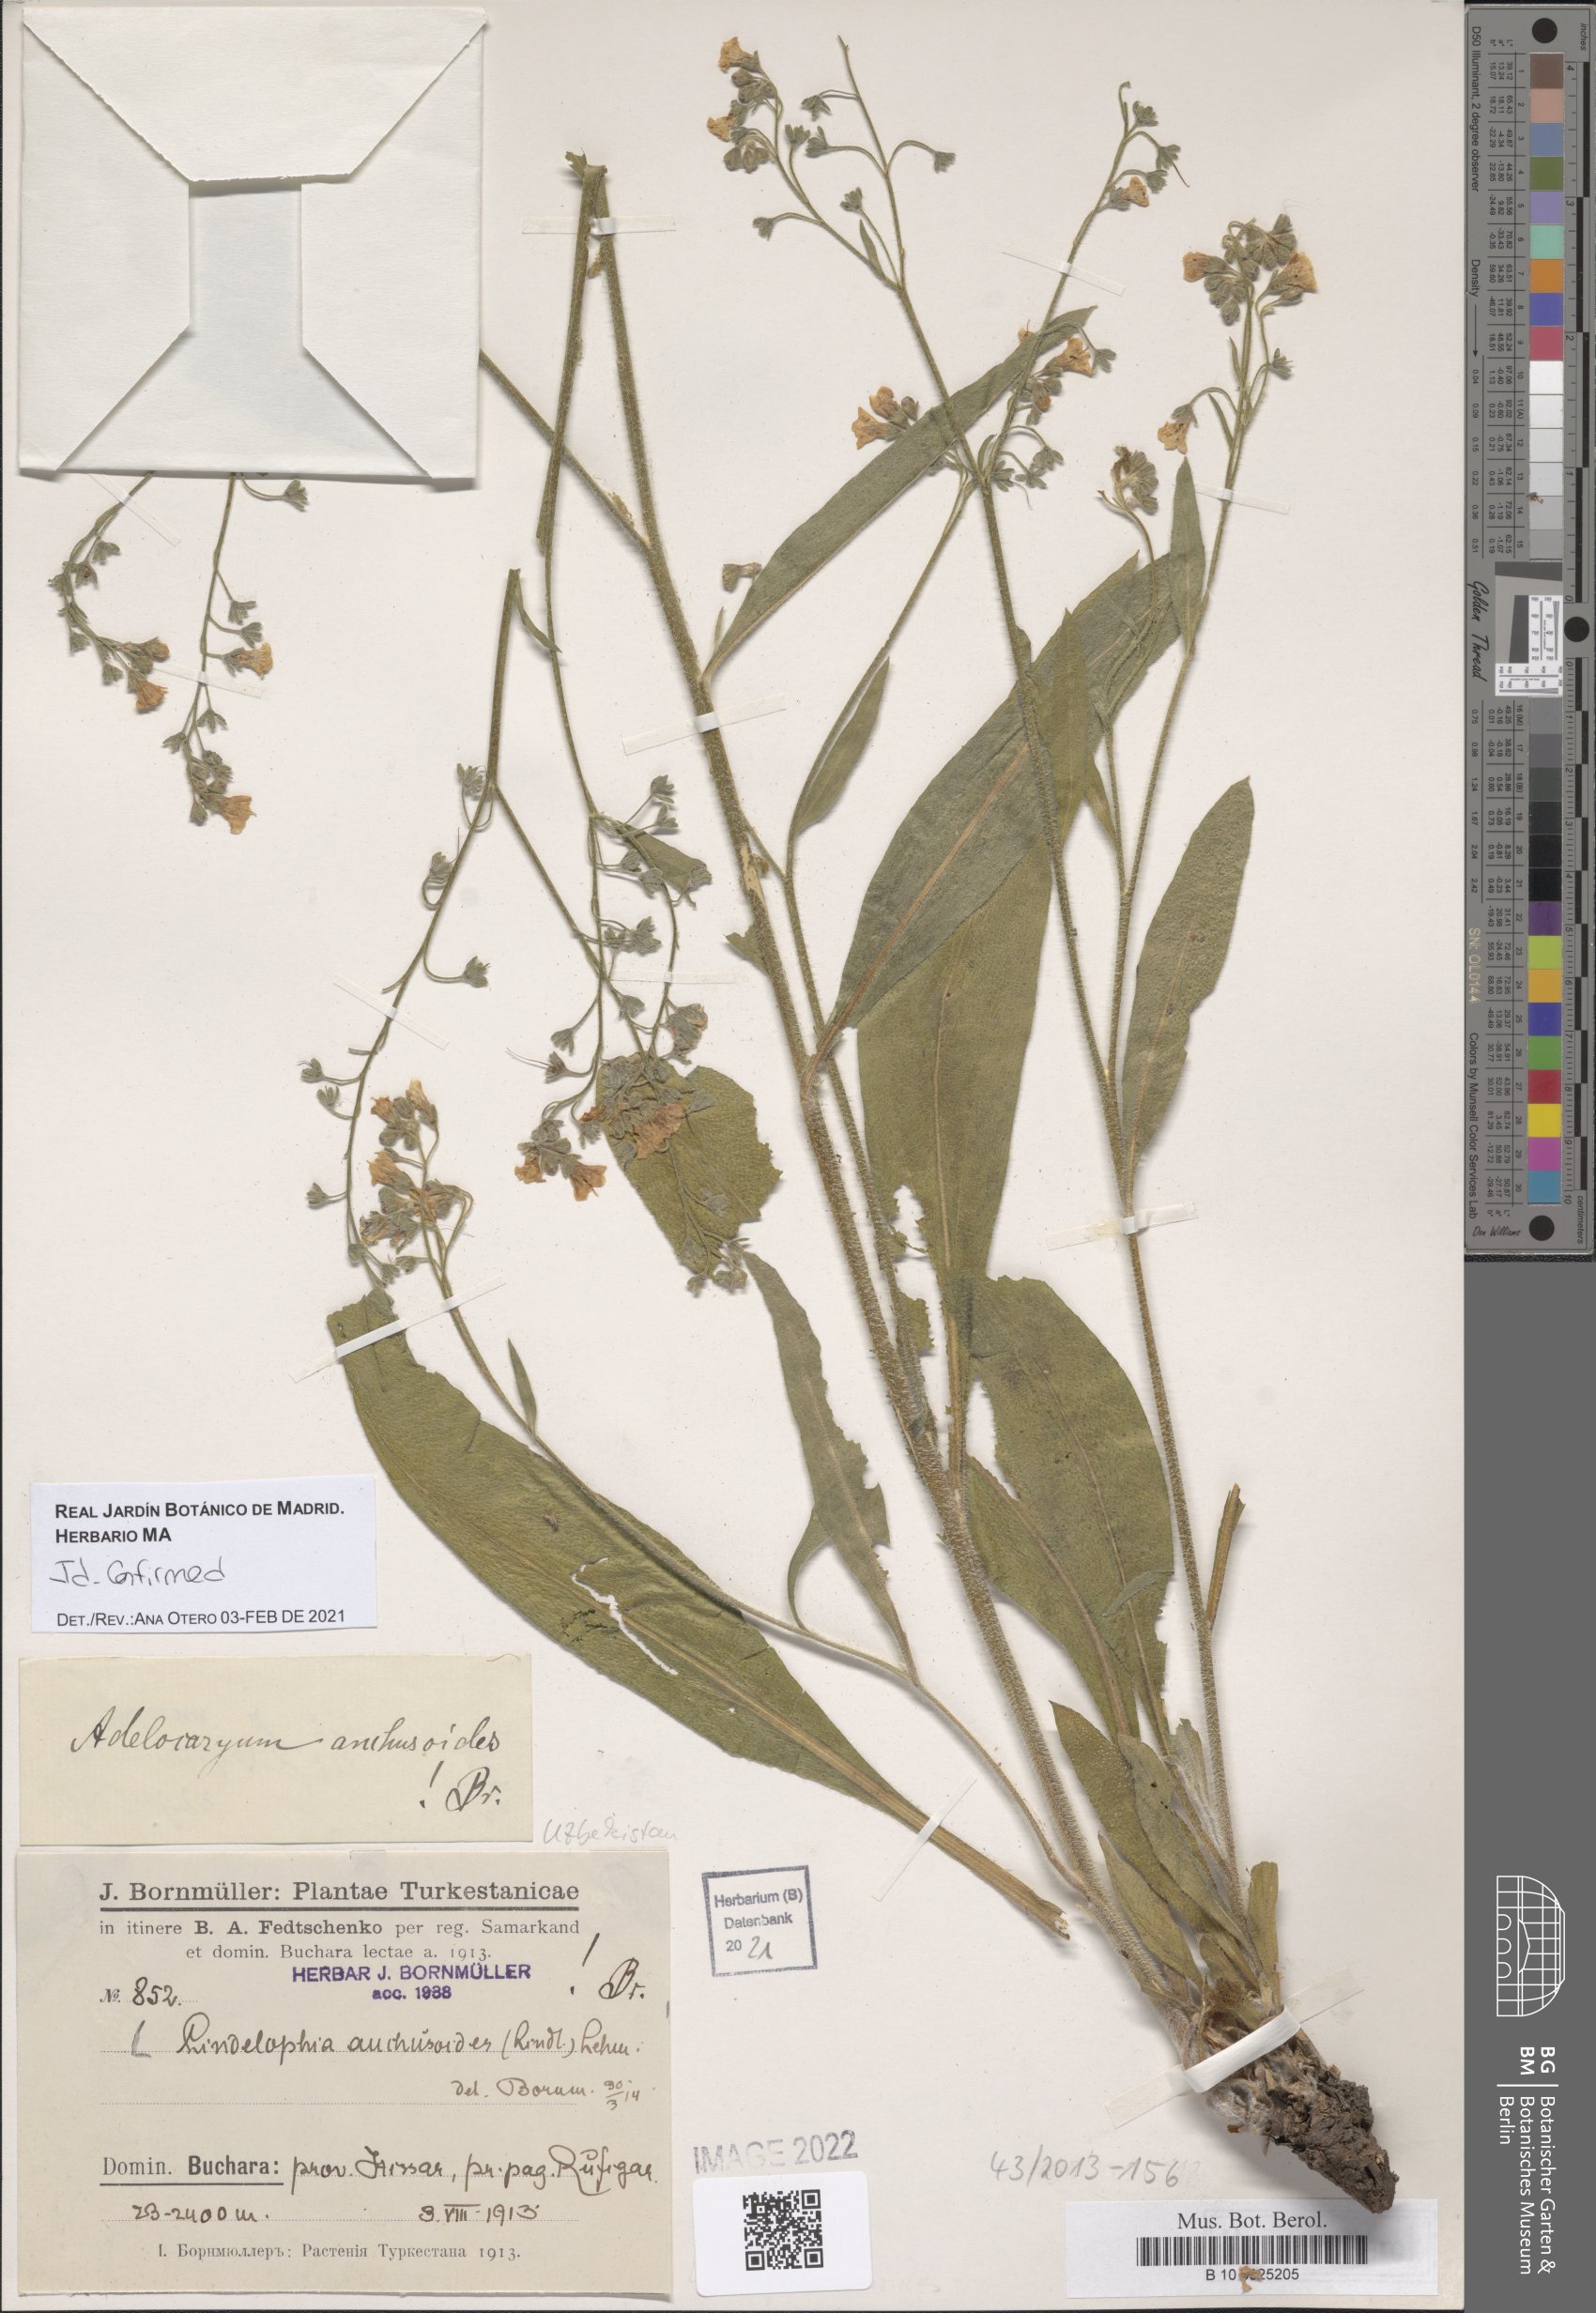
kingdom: Plantae
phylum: Tracheophyta
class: Magnoliopsida
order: Boraginales
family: Boraginaceae
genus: Lindelofia
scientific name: Lindelofia anchusoides
